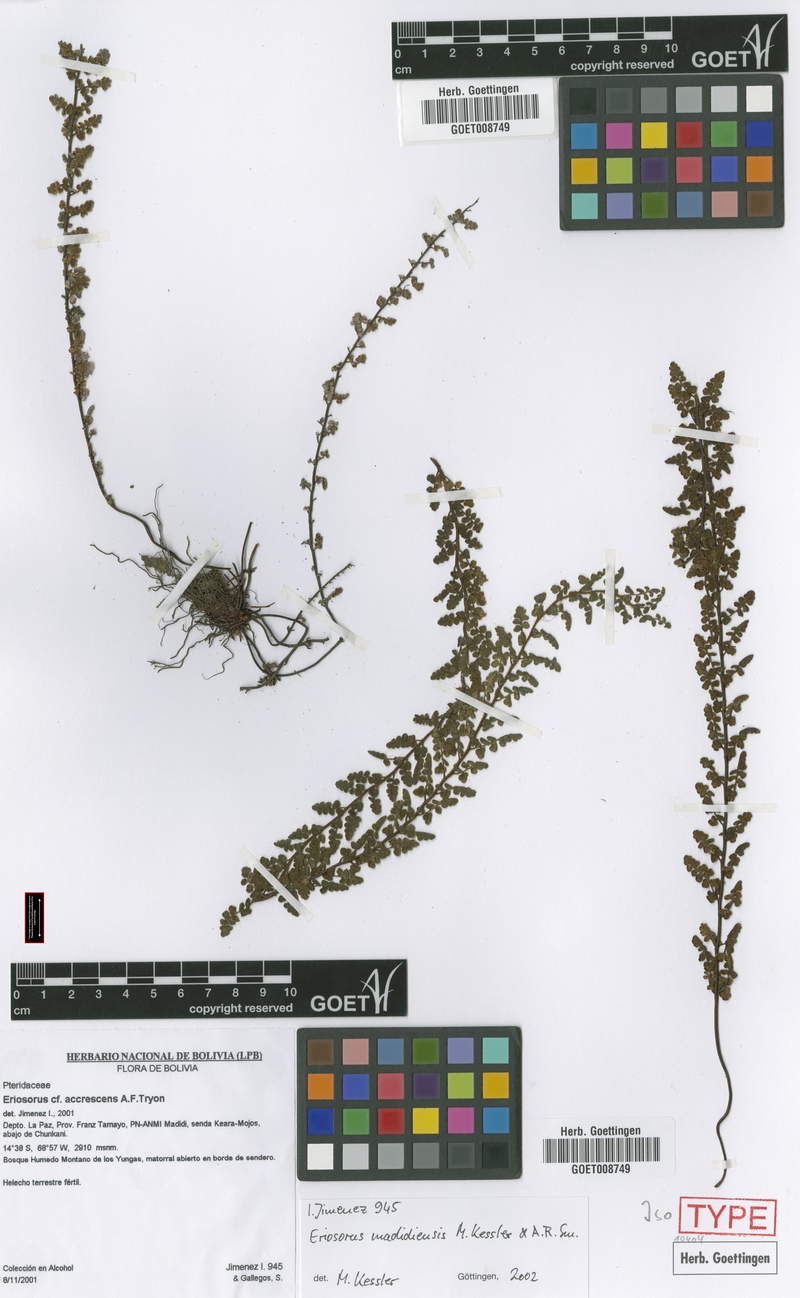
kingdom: Plantae
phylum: Tracheophyta
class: Polypodiopsida
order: Polypodiales
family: Pteridaceae
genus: Jamesonia
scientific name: Jamesonia madidiensis
